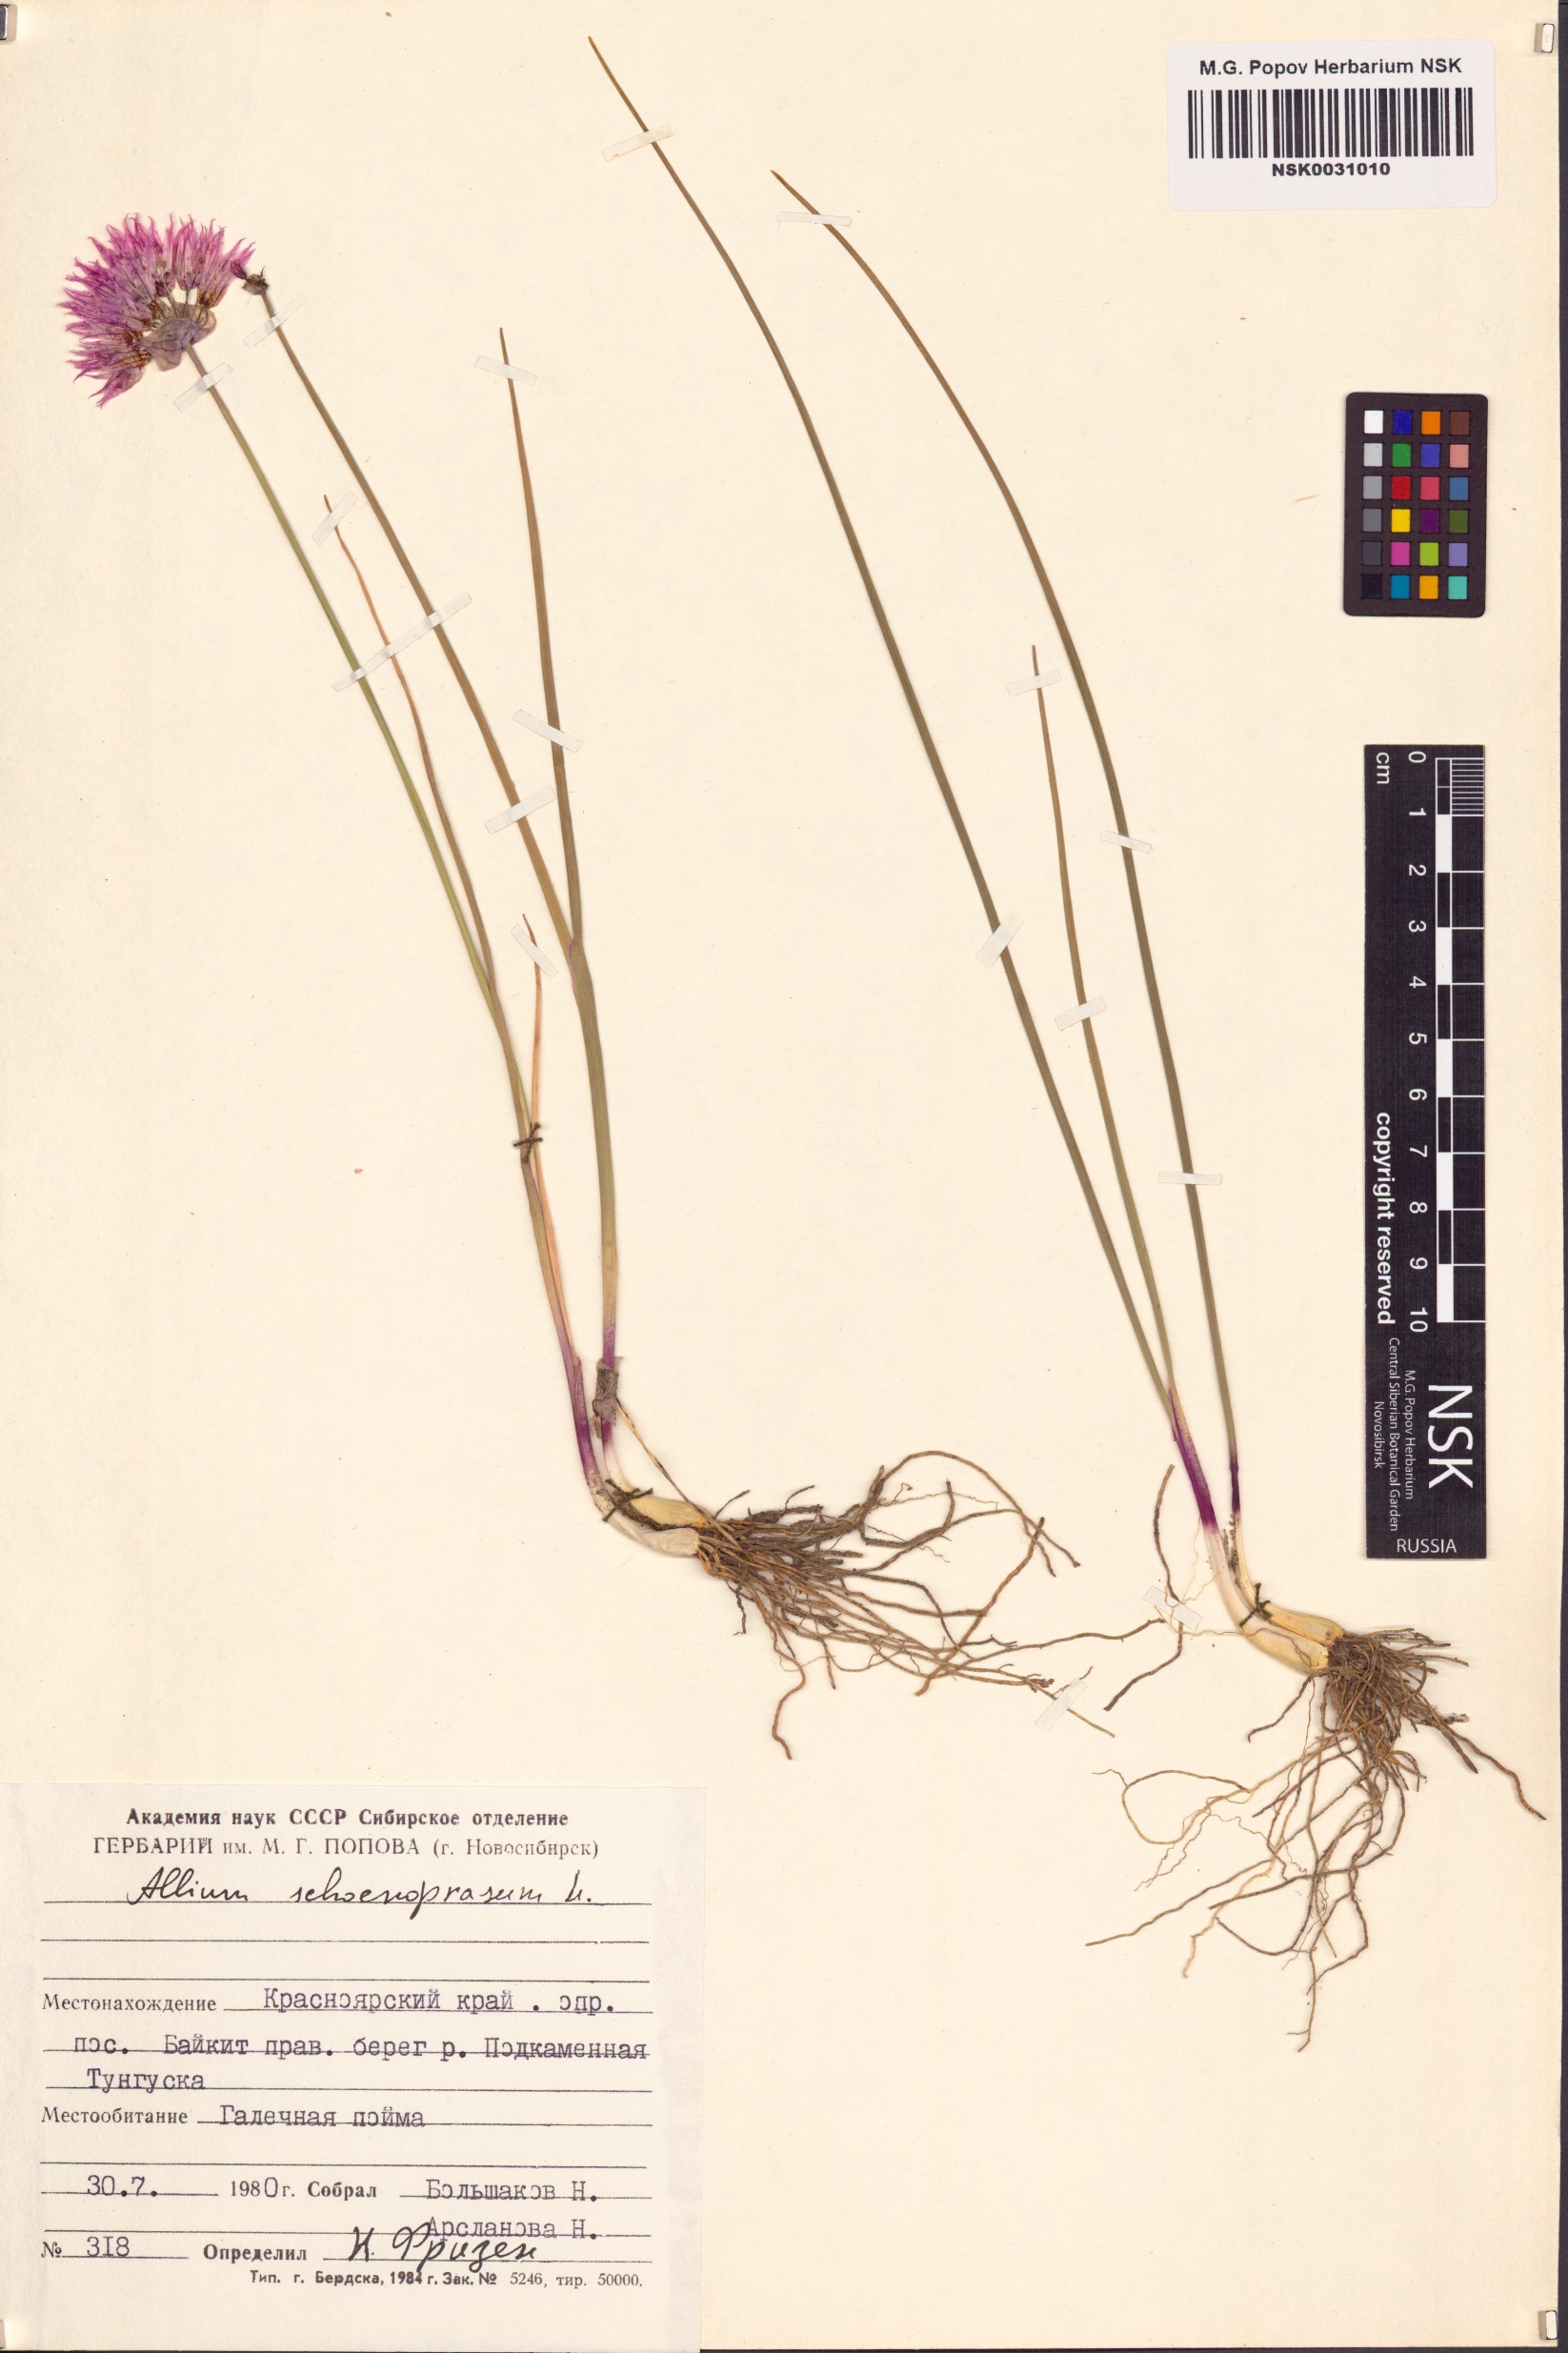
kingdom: Plantae
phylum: Tracheophyta
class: Liliopsida
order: Asparagales
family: Amaryllidaceae
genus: Allium
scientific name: Allium schoenoprasum
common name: Chives
